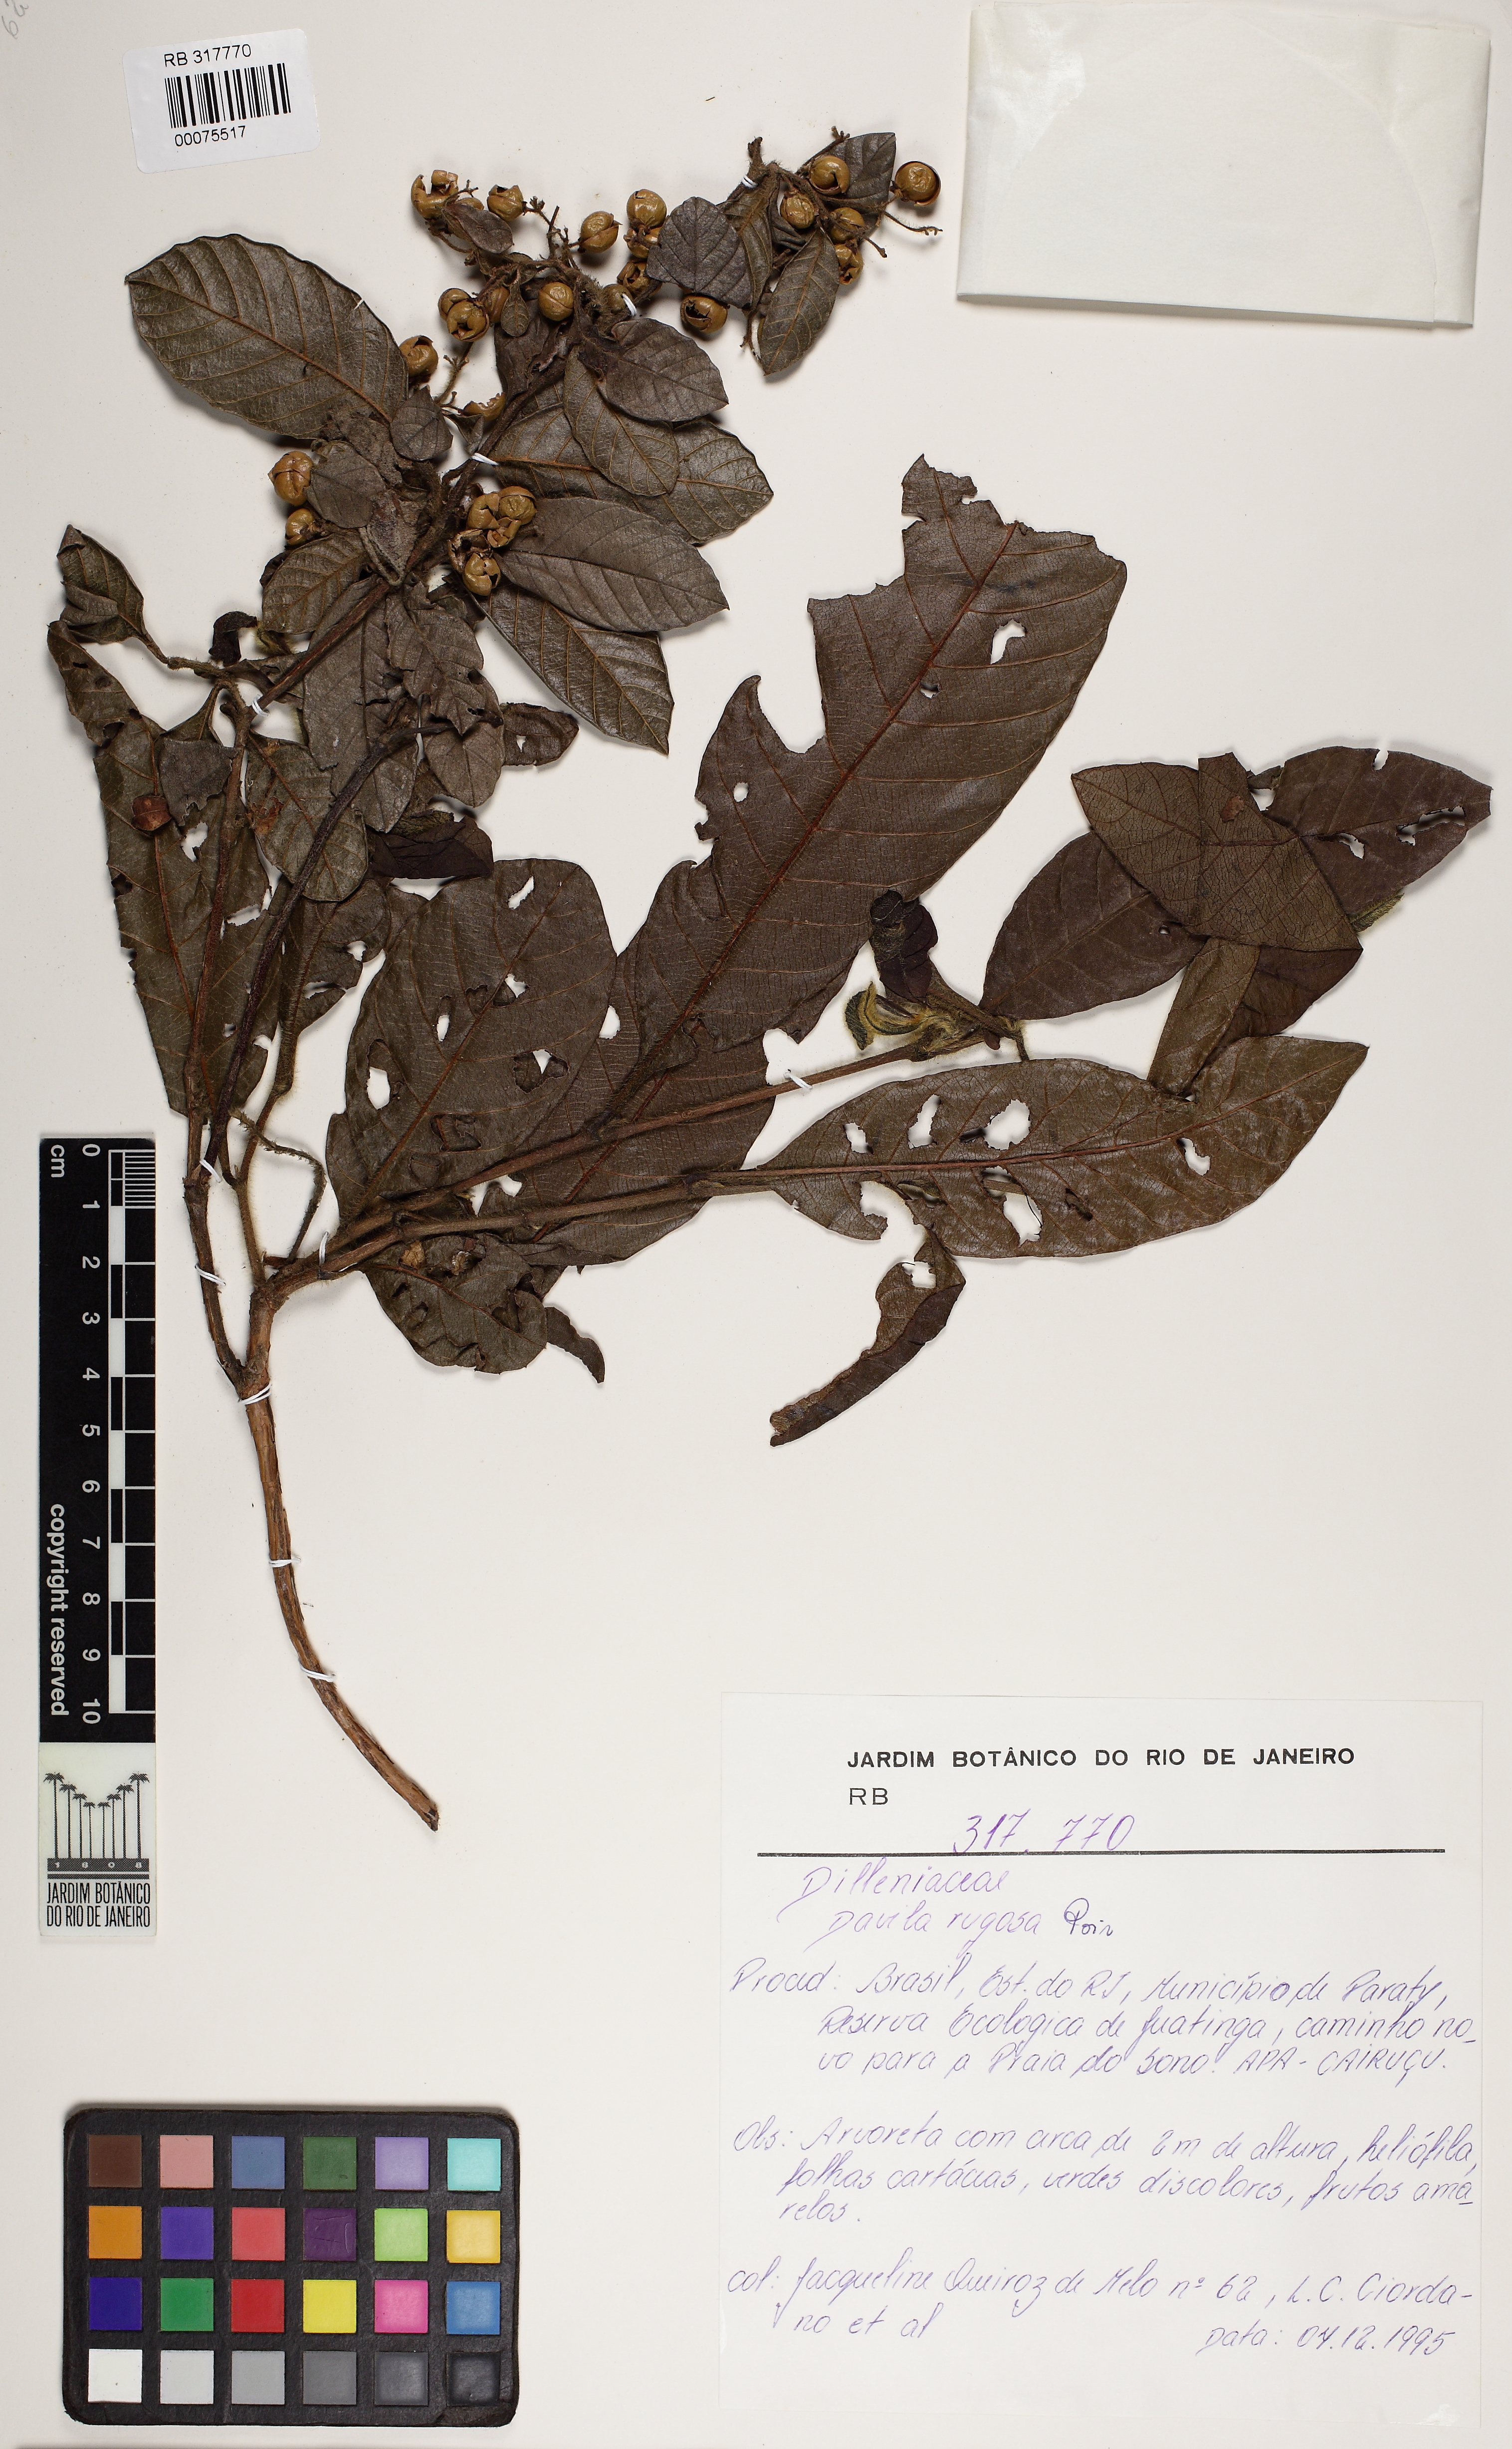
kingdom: Plantae
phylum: Tracheophyta
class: Magnoliopsida
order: Dilleniales
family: Dilleniaceae
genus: Davilla
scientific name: Davilla rugosa
